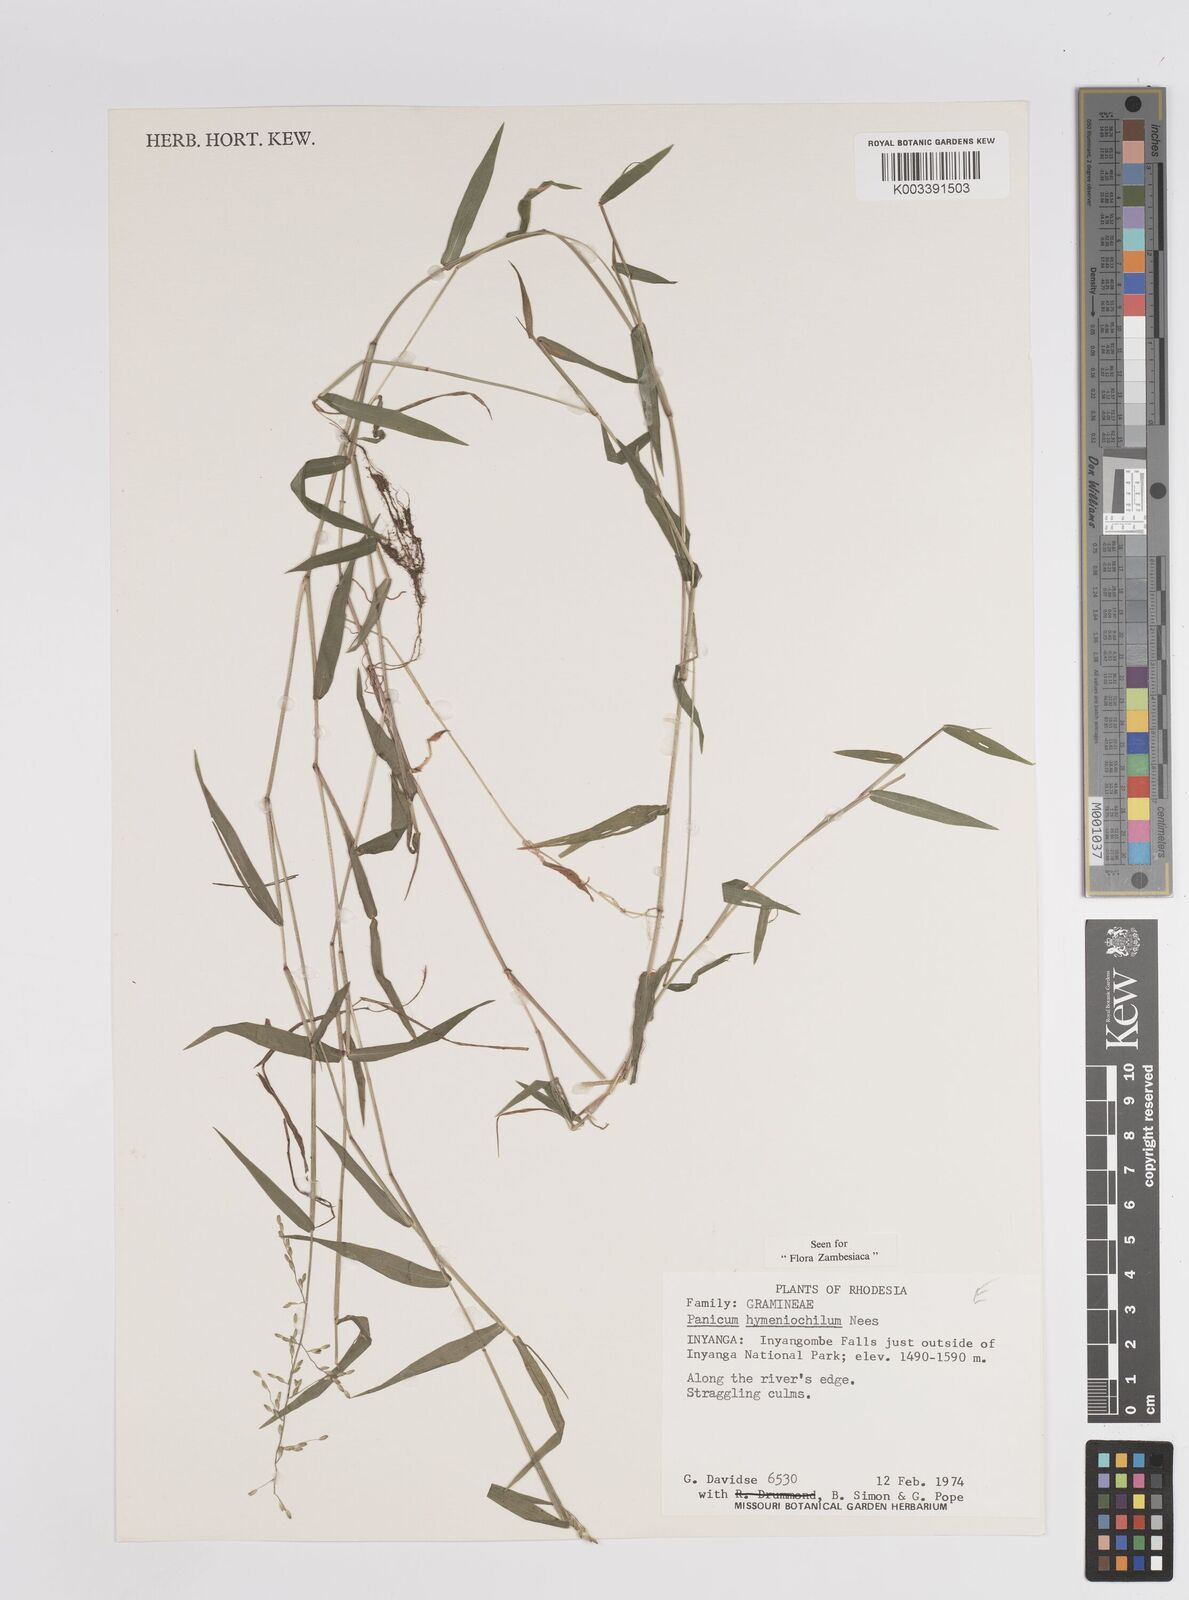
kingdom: Plantae
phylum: Tracheophyta
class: Liliopsida
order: Poales
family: Poaceae
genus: Adenochloa
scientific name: Adenochloa hymeniochila
